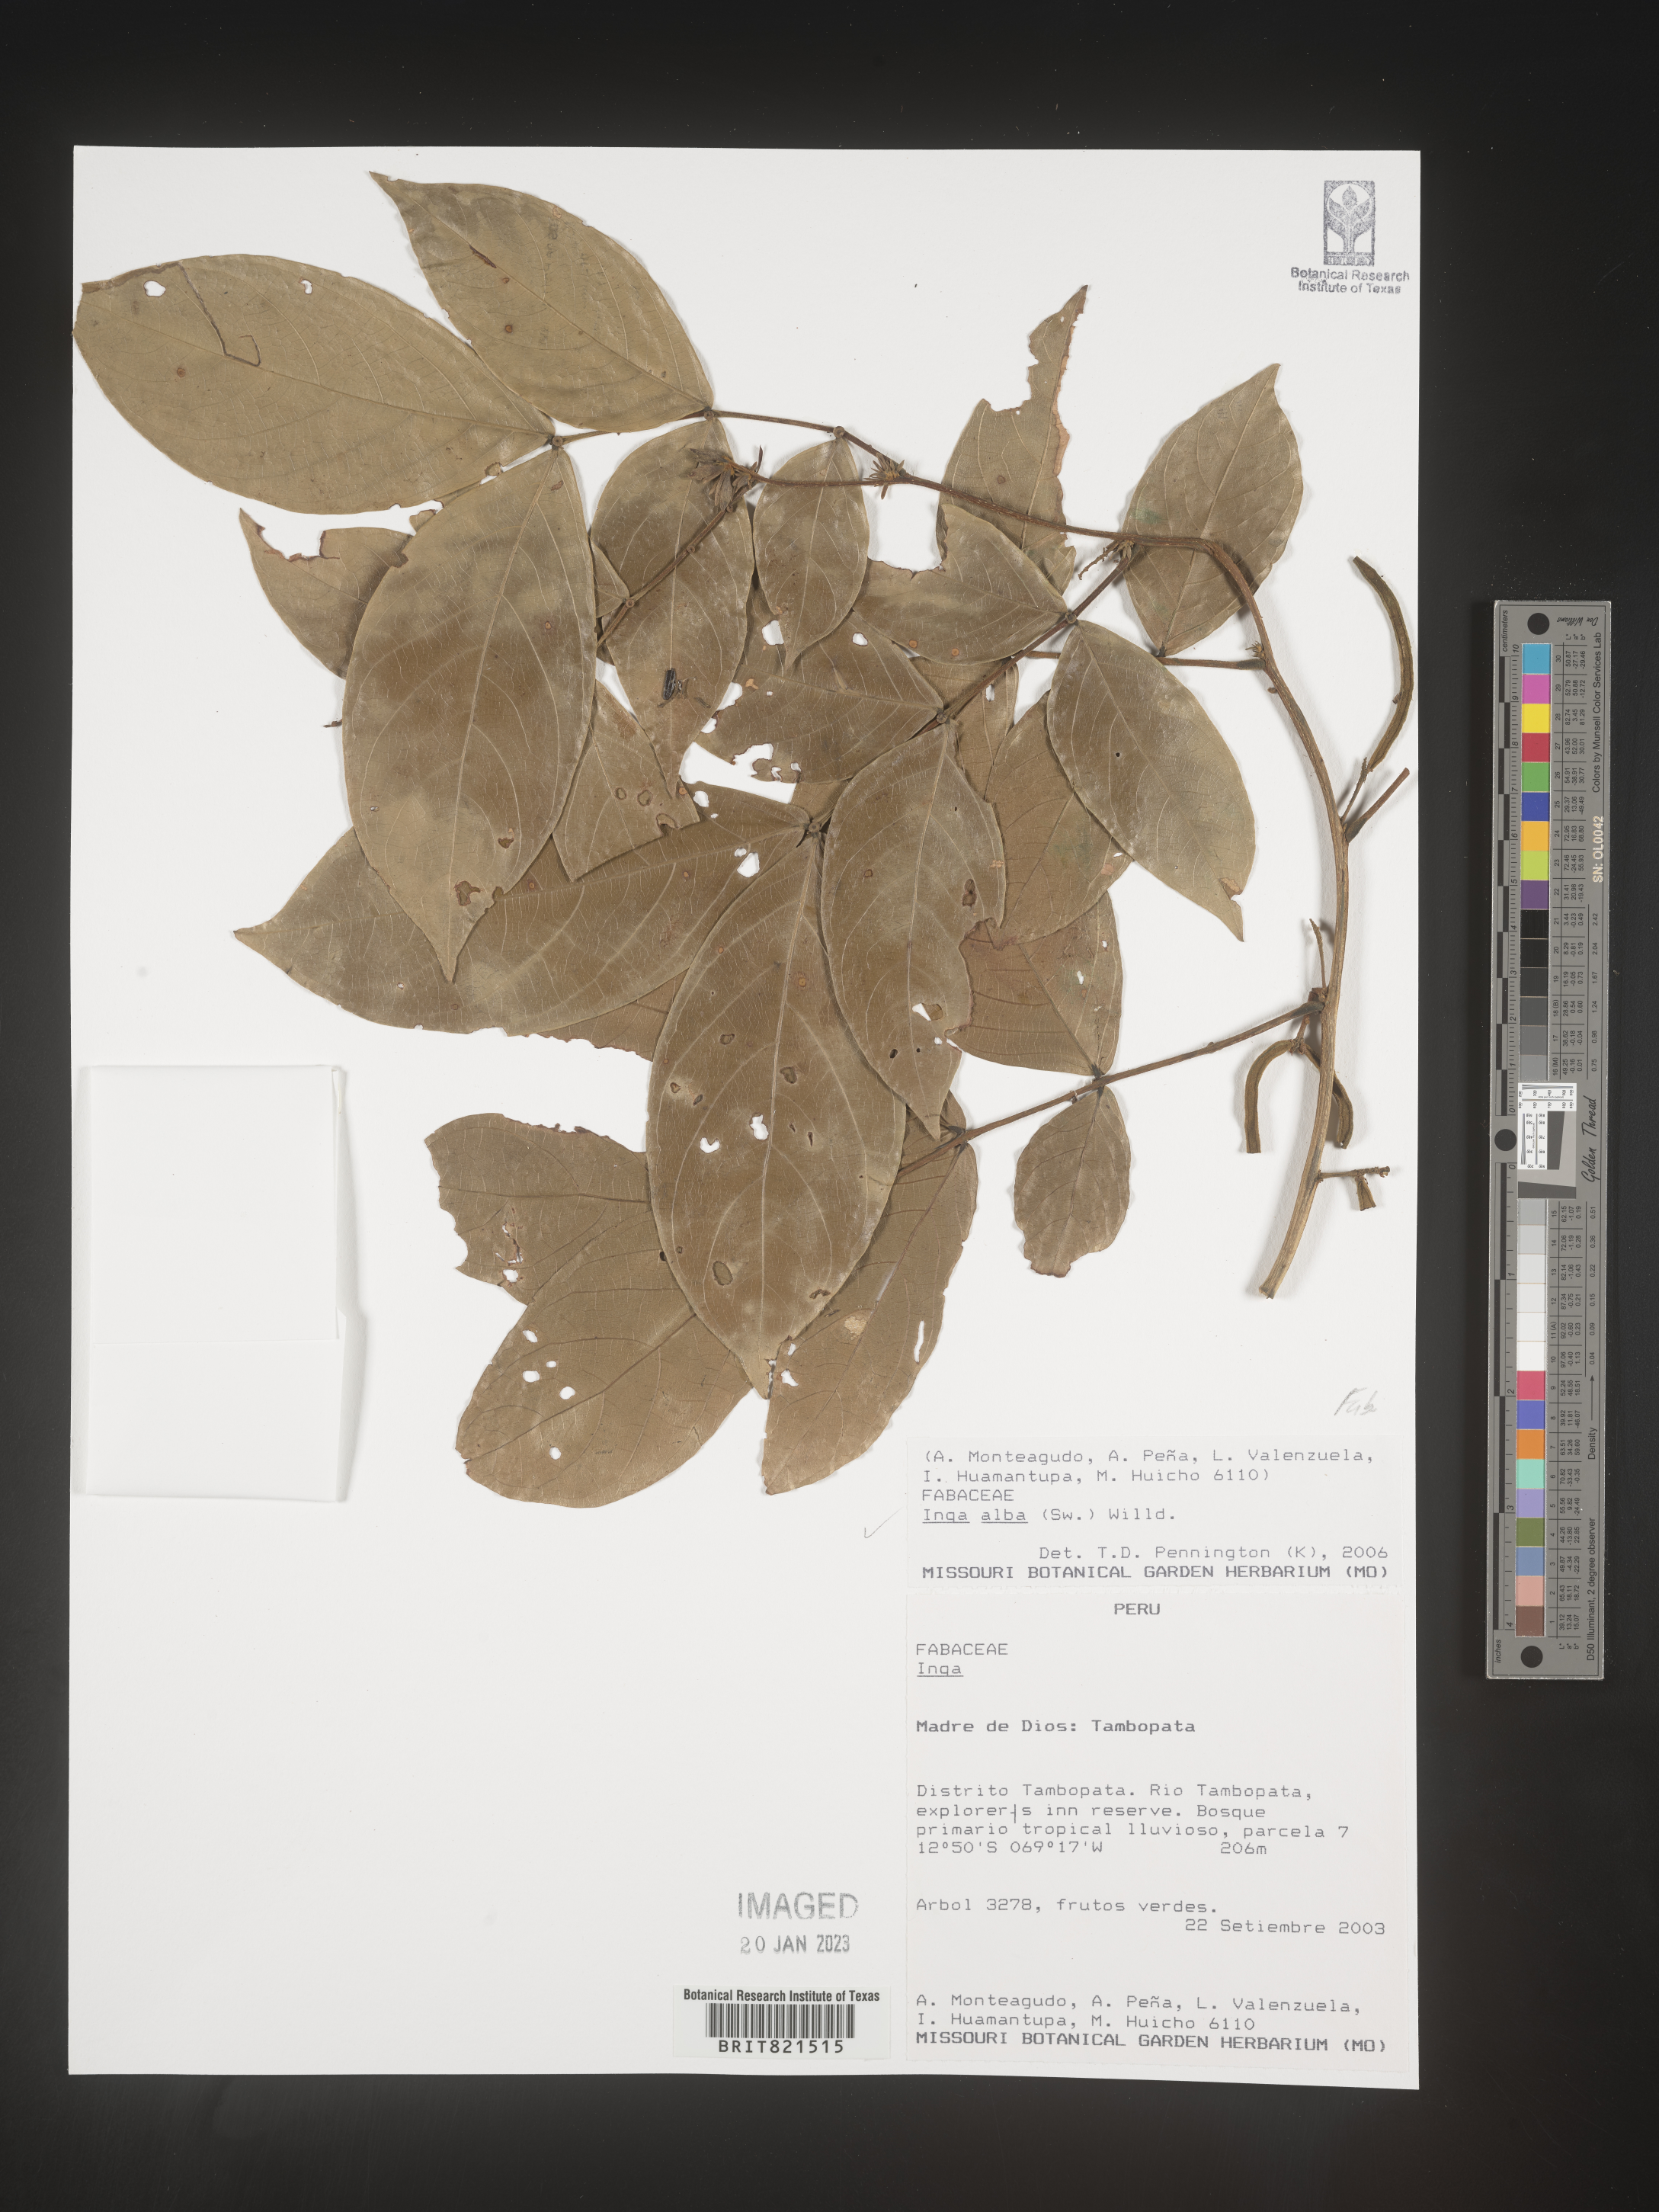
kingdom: Plantae
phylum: Tracheophyta
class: Magnoliopsida
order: Fabales
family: Fabaceae
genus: Inga
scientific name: Inga
